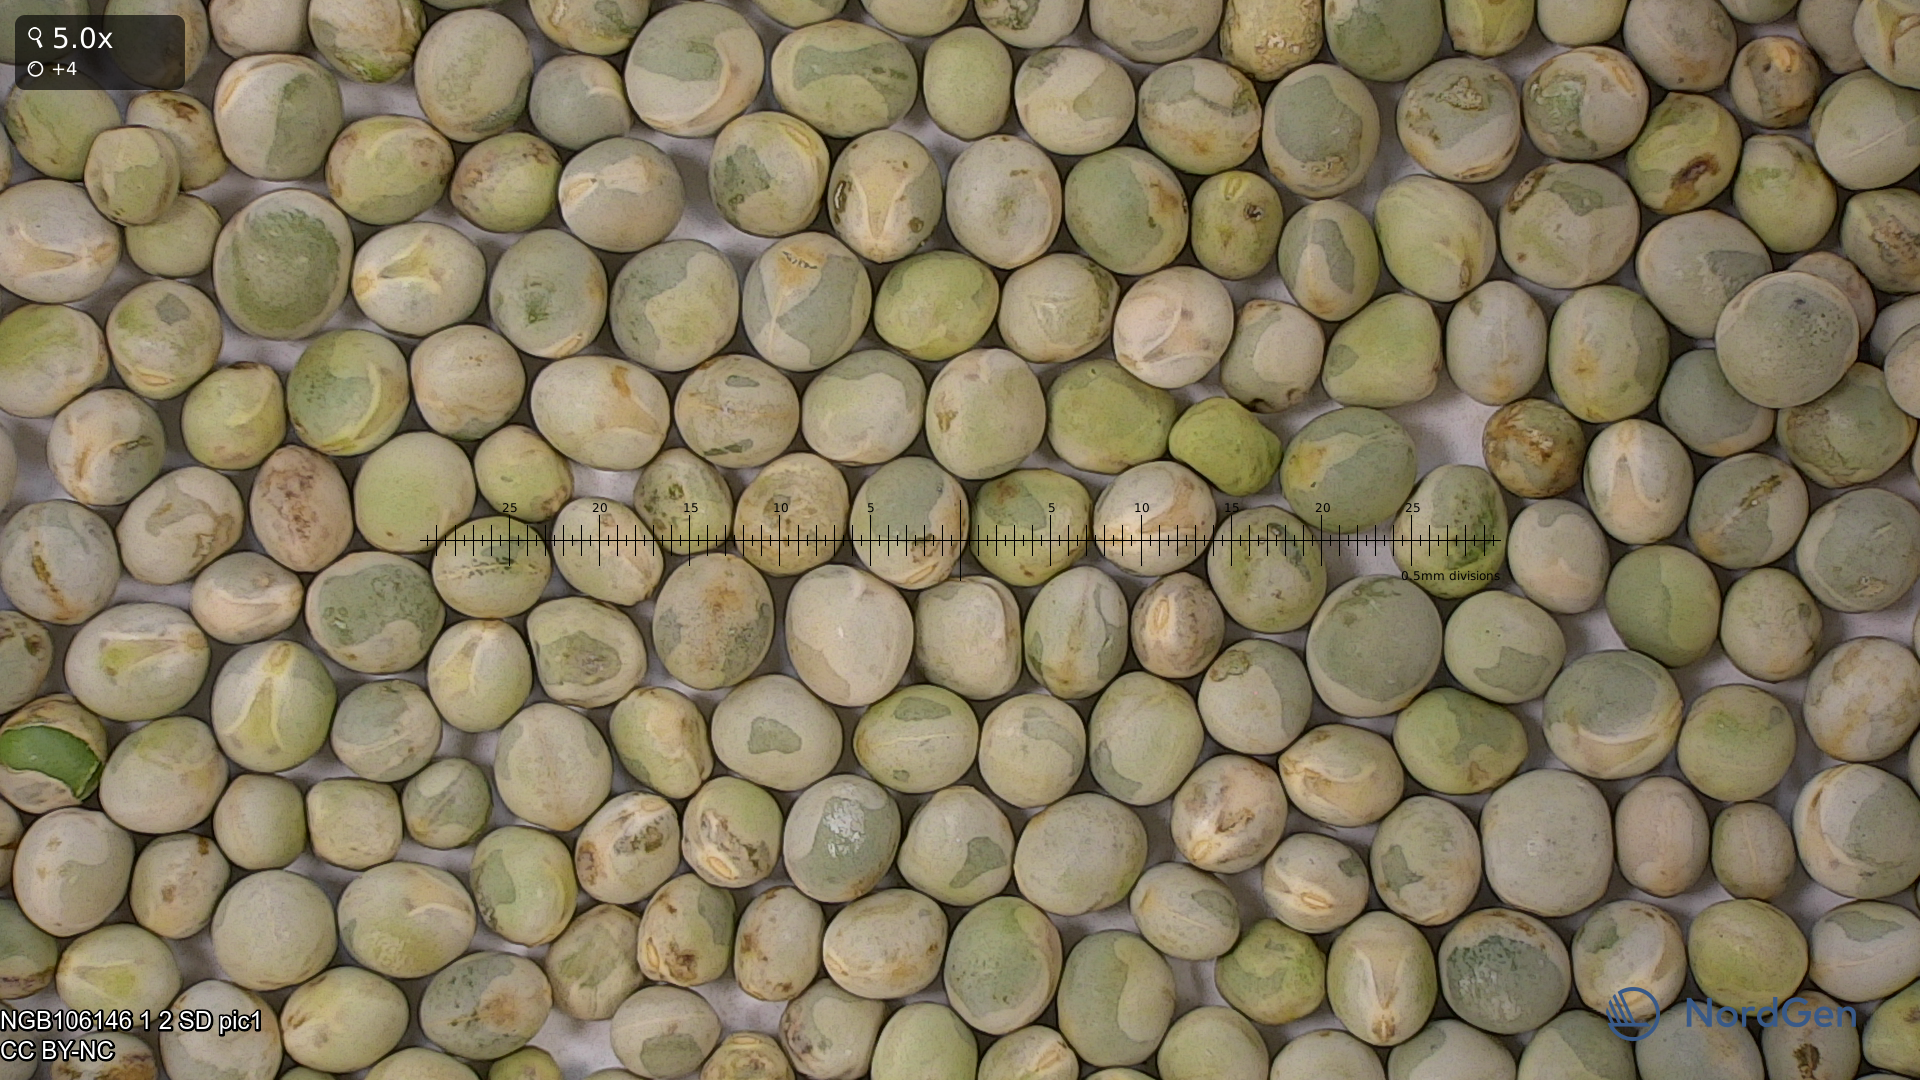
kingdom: Plantae
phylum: Tracheophyta
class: Magnoliopsida
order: Fabales
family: Fabaceae
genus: Lathyrus
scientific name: Lathyrus oleraceus
